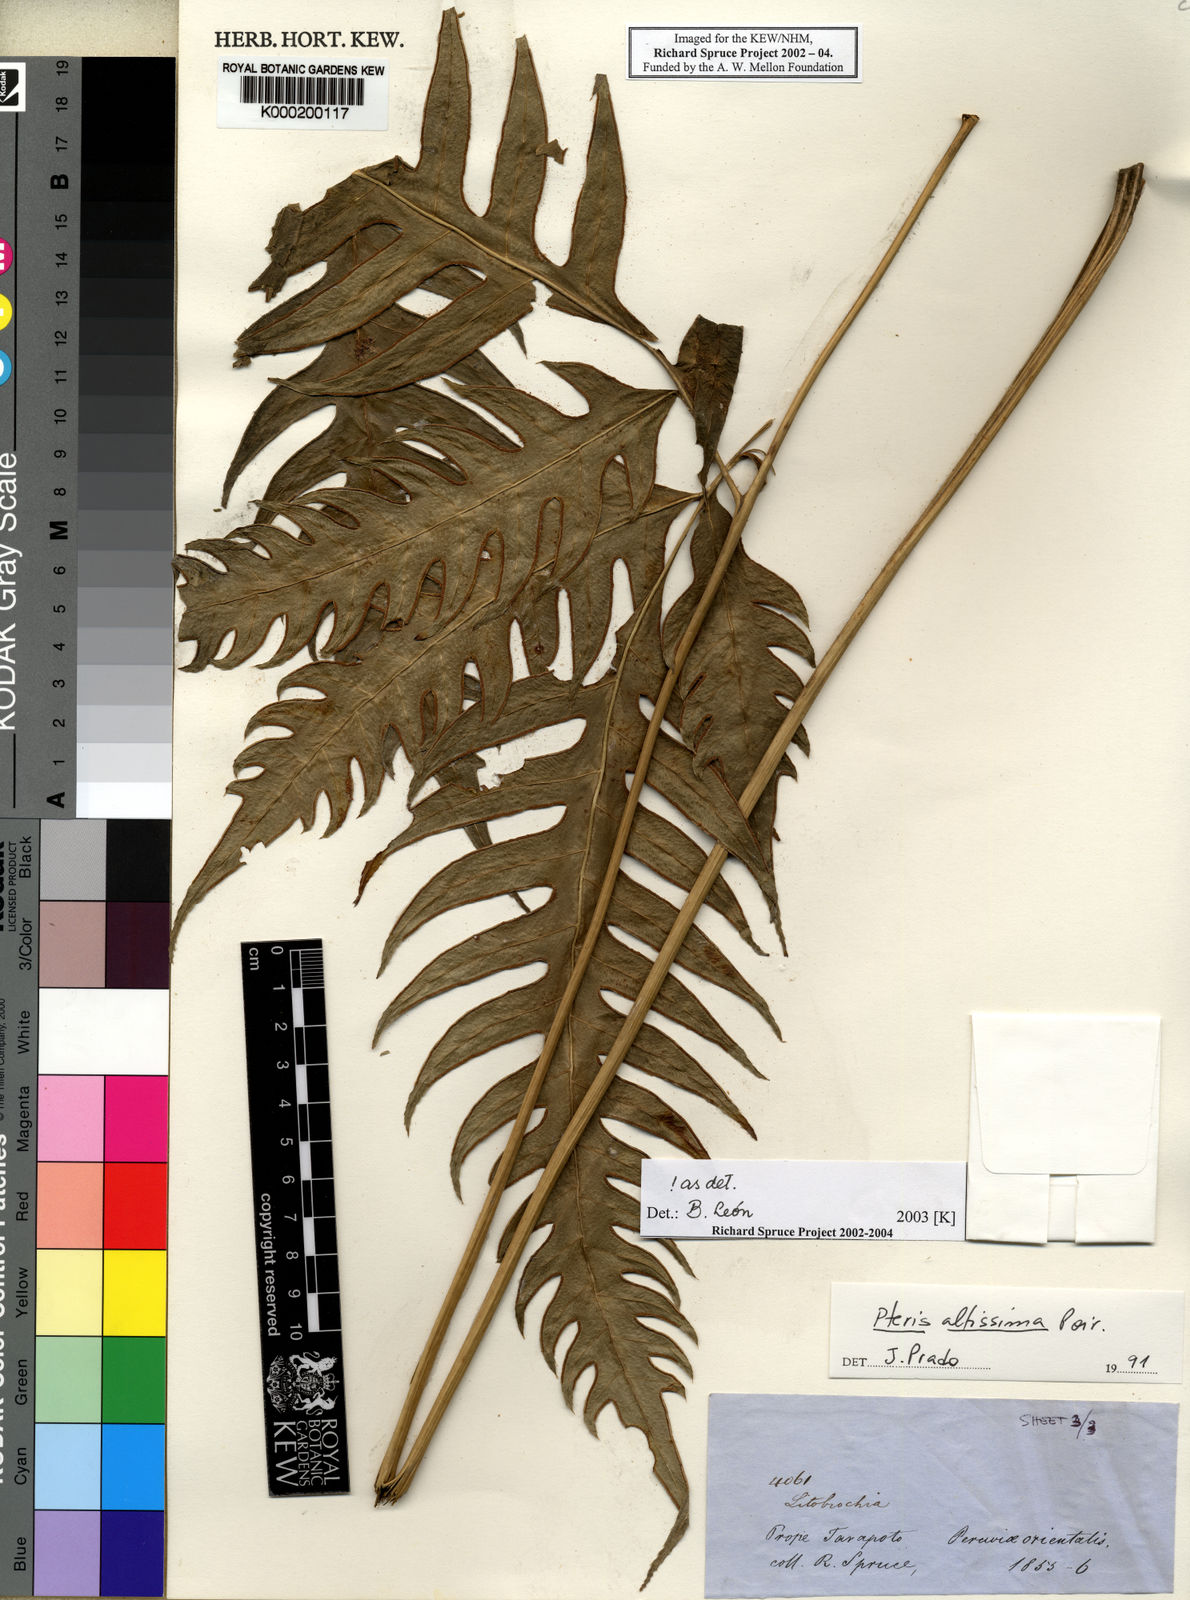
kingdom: Plantae
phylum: Tracheophyta
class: Polypodiopsida
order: Polypodiales
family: Pteridaceae
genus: Pteris
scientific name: Pteris altissima
